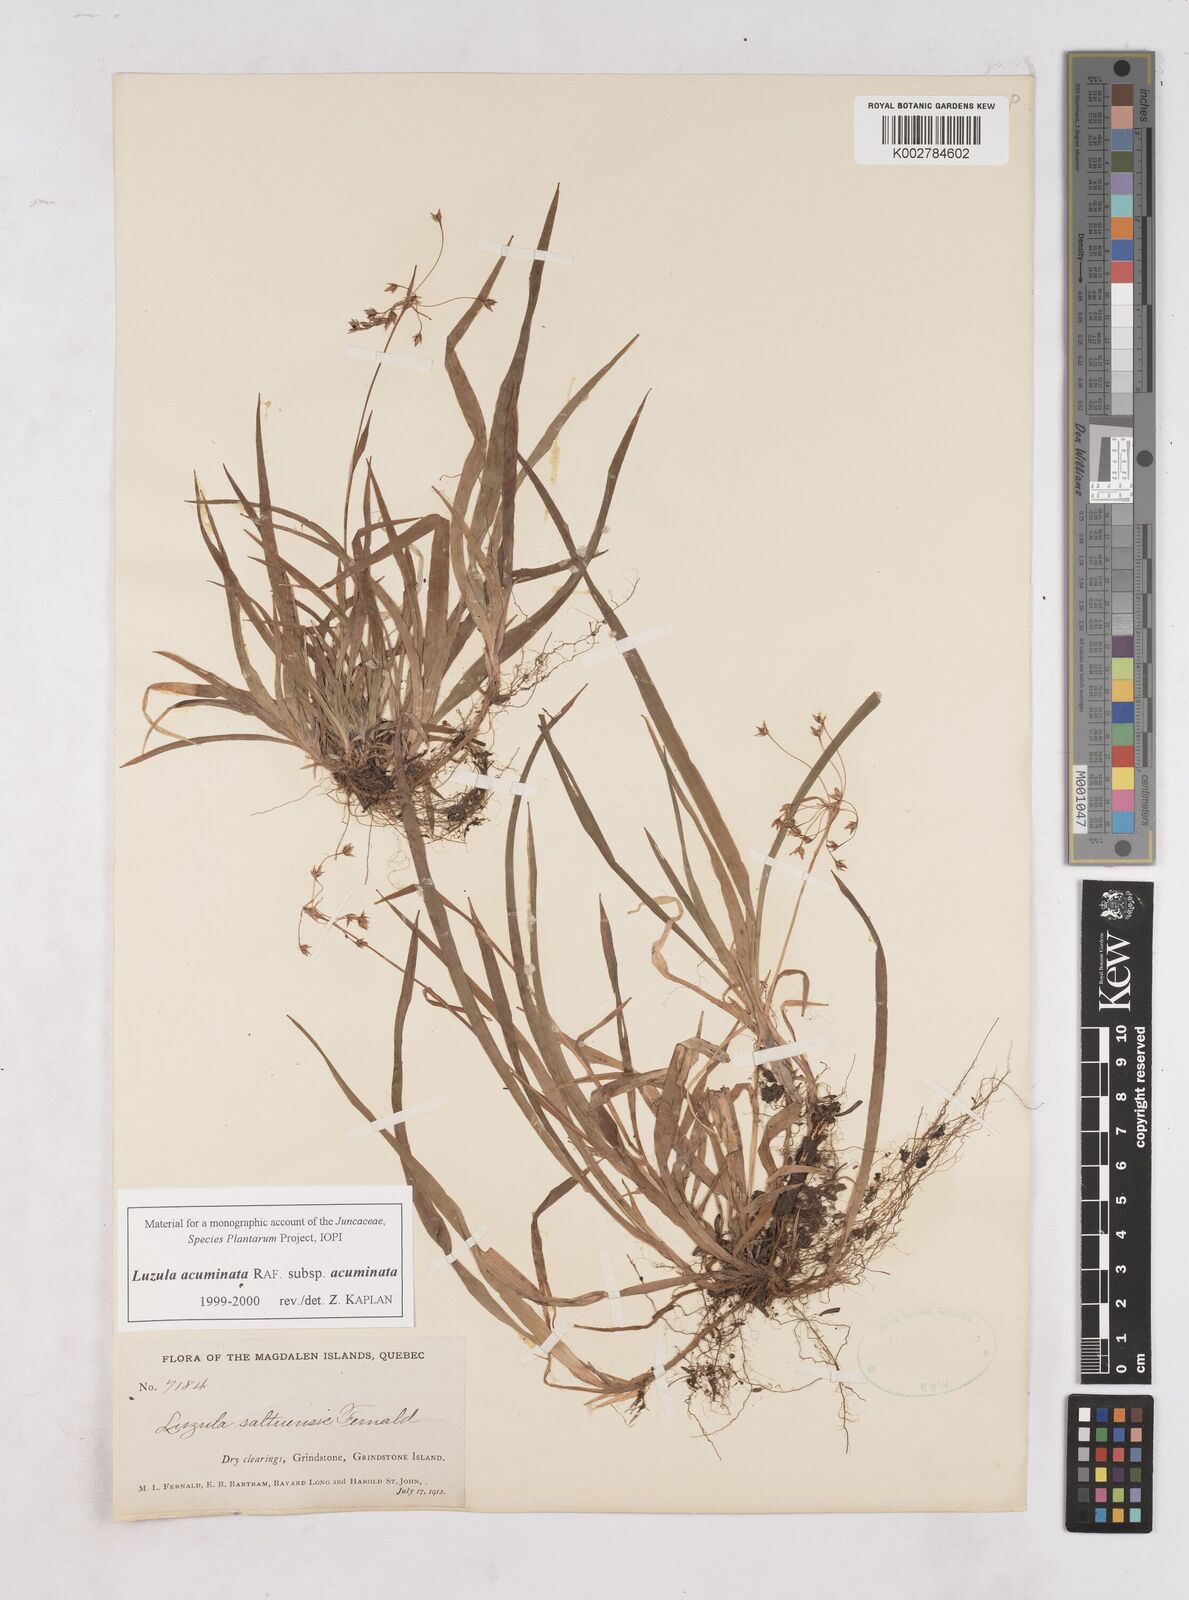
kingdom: Plantae
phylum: Tracheophyta
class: Liliopsida
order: Poales
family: Juncaceae
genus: Luzula
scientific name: Luzula acuminata
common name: Hairy woodrush
